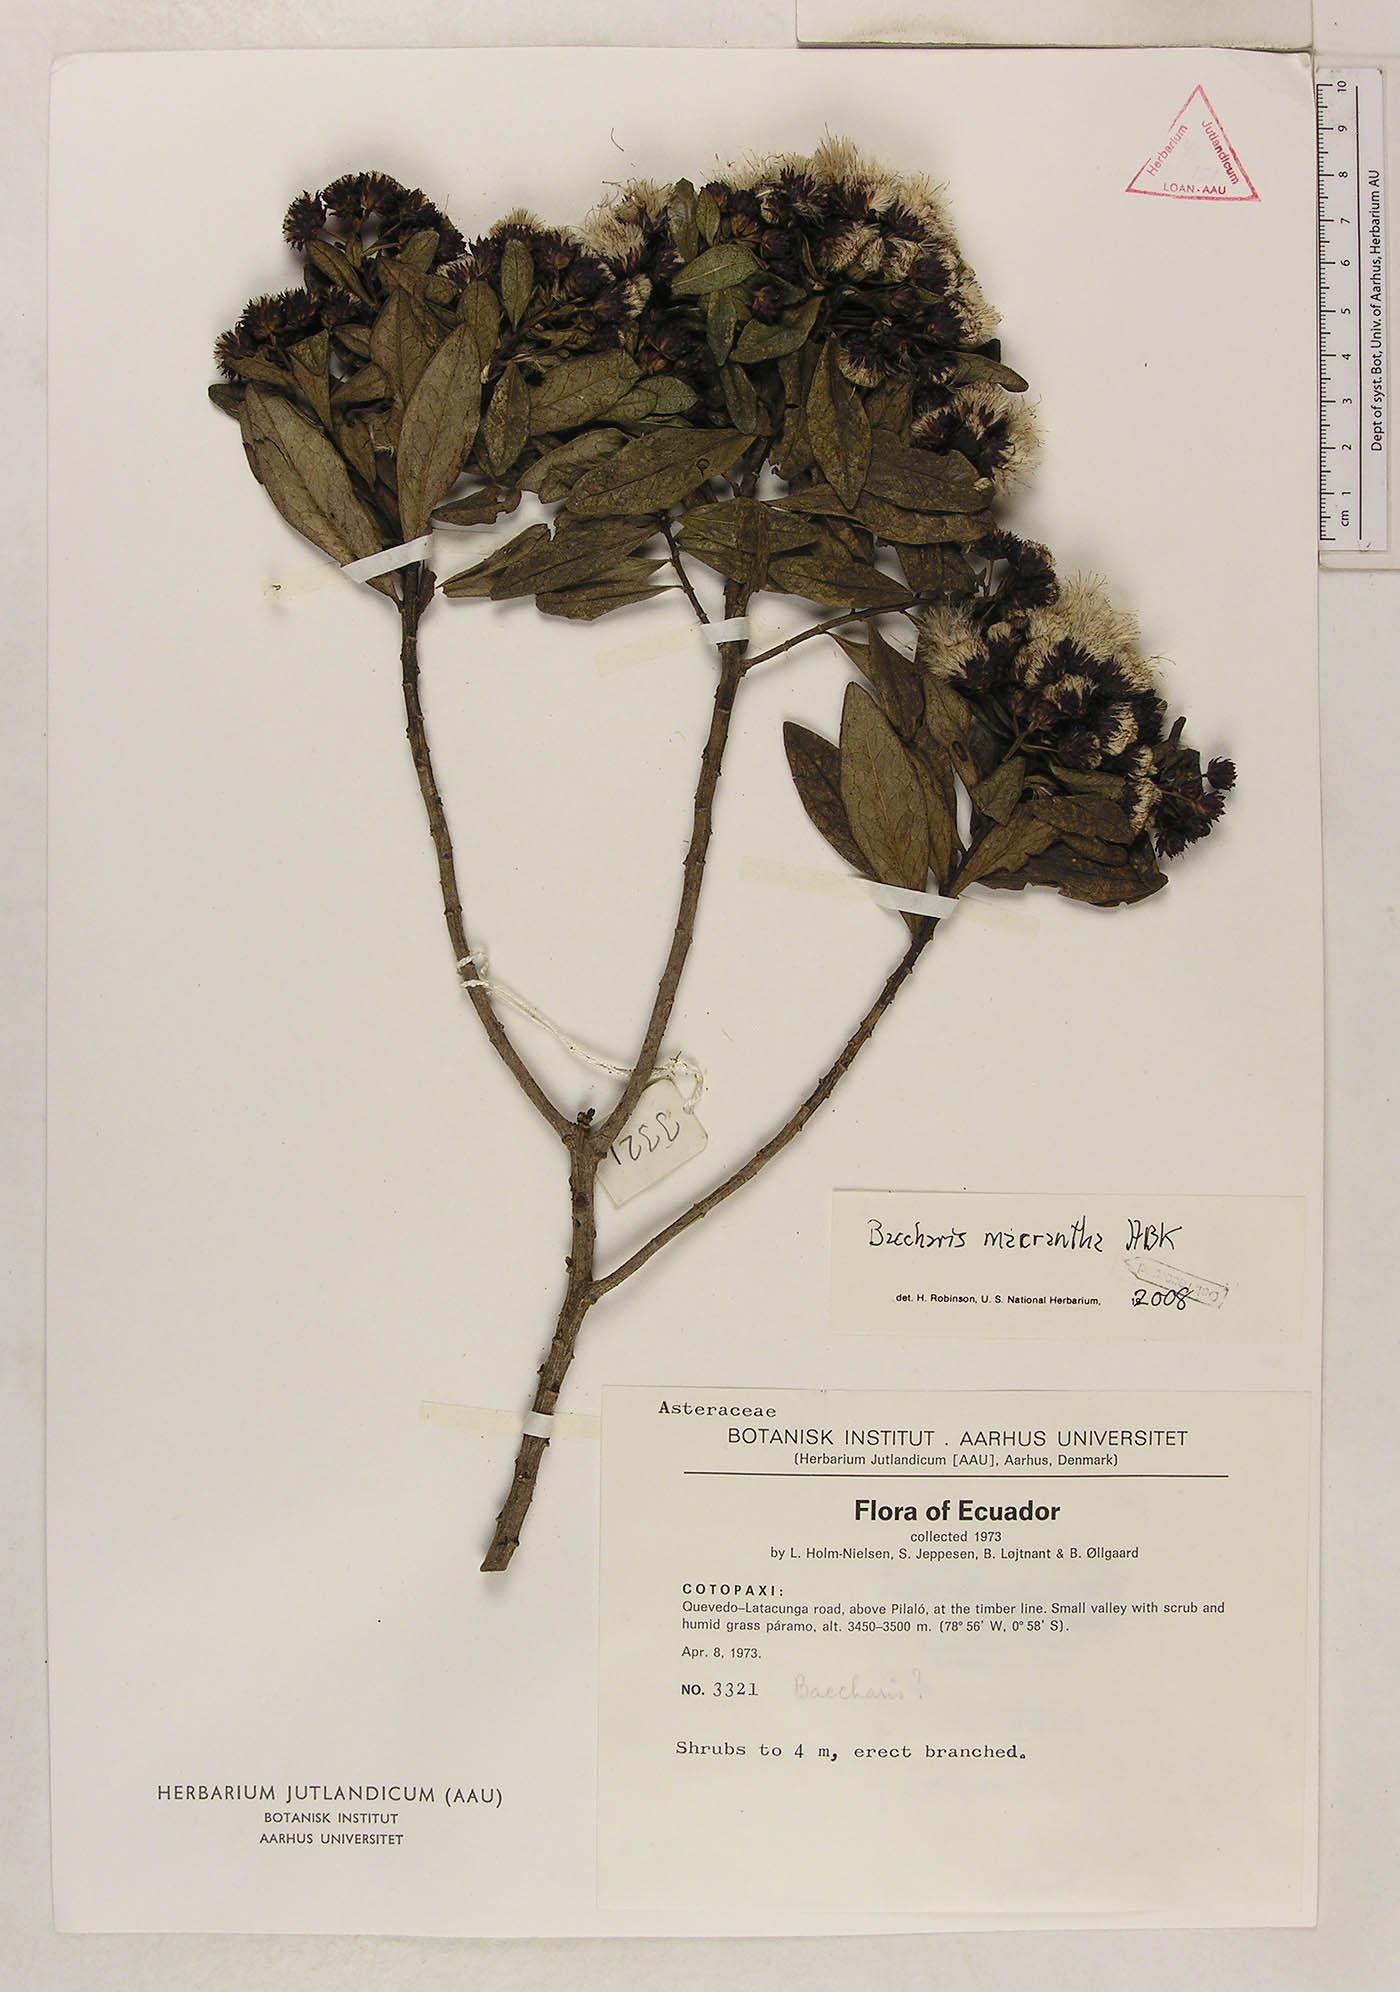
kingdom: Plantae
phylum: Tracheophyta
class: Magnoliopsida
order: Asterales
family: Asteraceae
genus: Baccharis
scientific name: Baccharis macrantha
